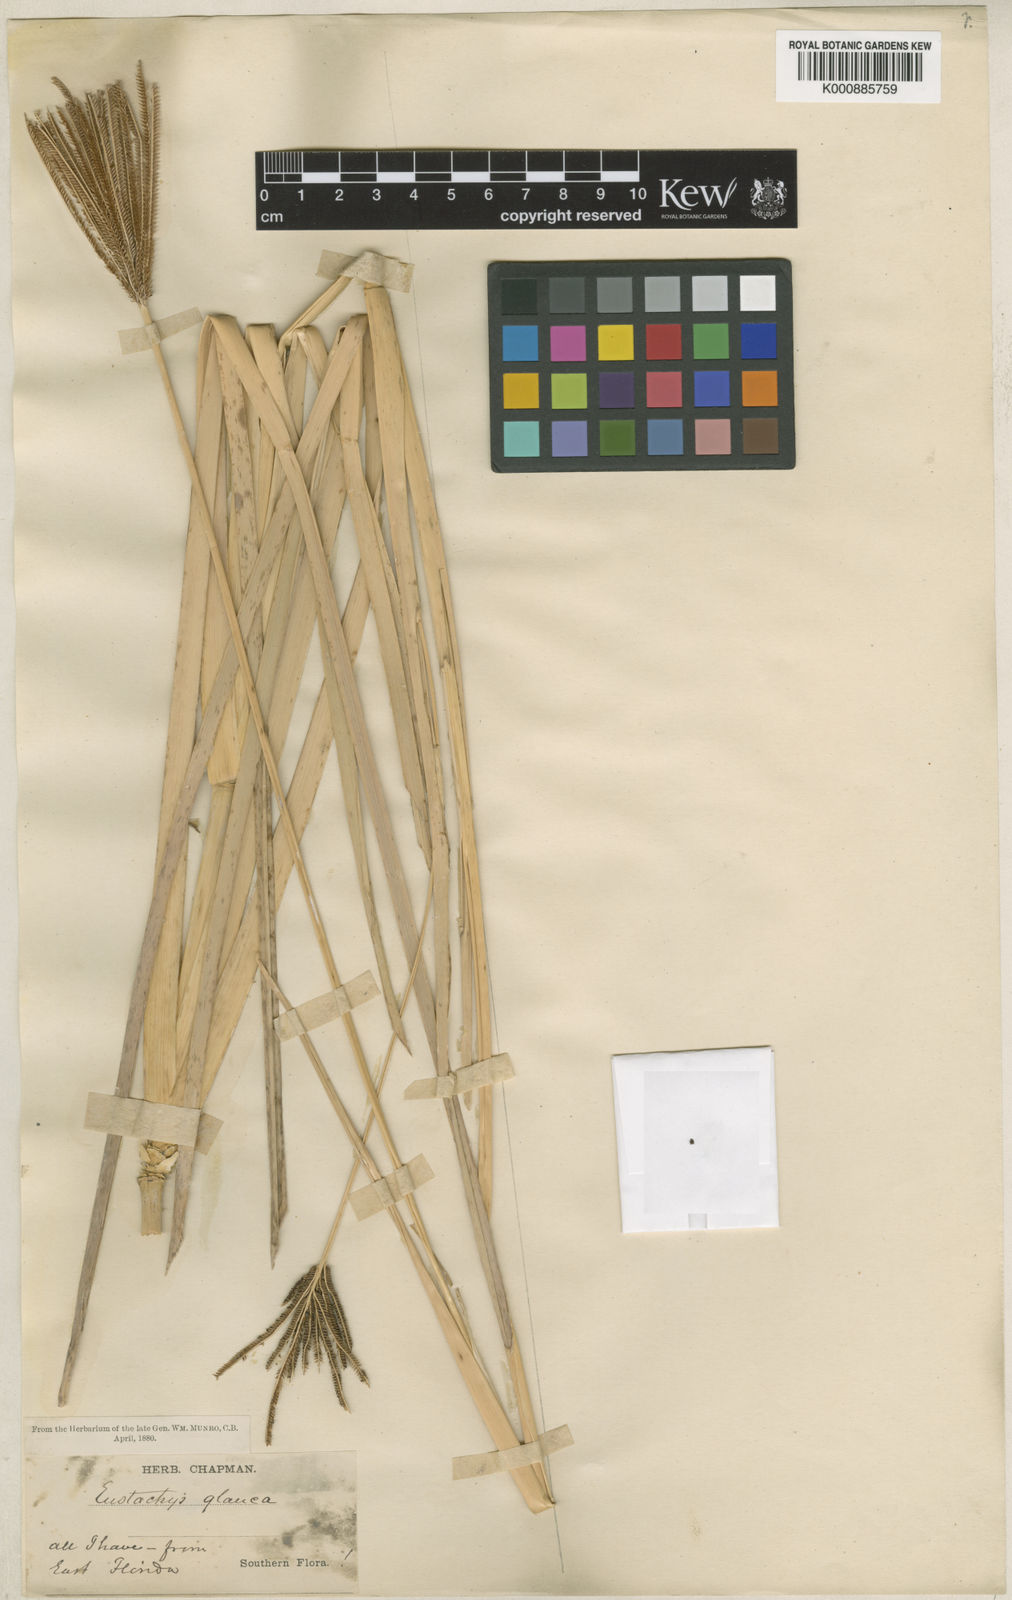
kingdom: Plantae
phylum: Tracheophyta
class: Liliopsida
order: Poales
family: Poaceae
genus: Eustachys
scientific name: Eustachys glauca
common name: Saltmarsh finger grass
